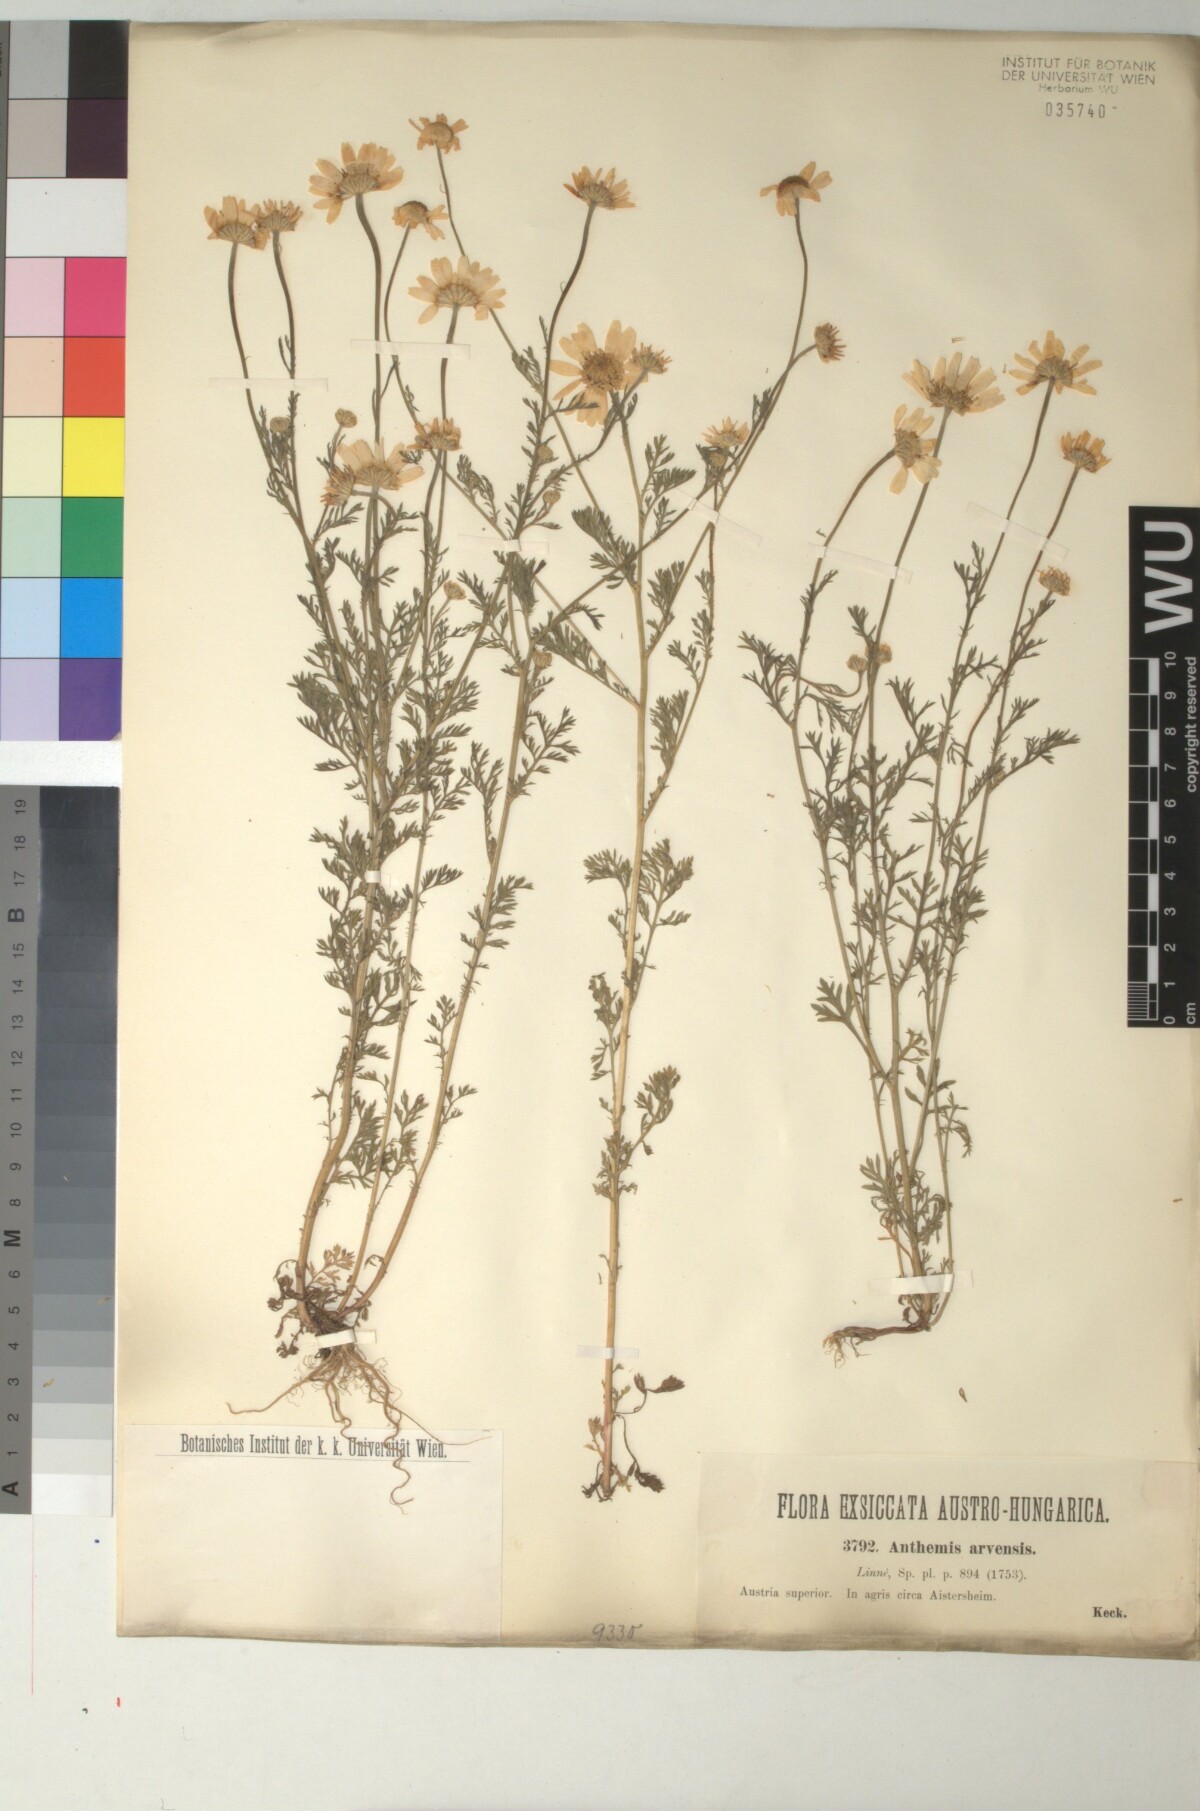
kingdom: Plantae
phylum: Tracheophyta
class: Magnoliopsida
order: Asterales
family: Asteraceae
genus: Anthemis
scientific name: Anthemis arvensis
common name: Corn chamomile
